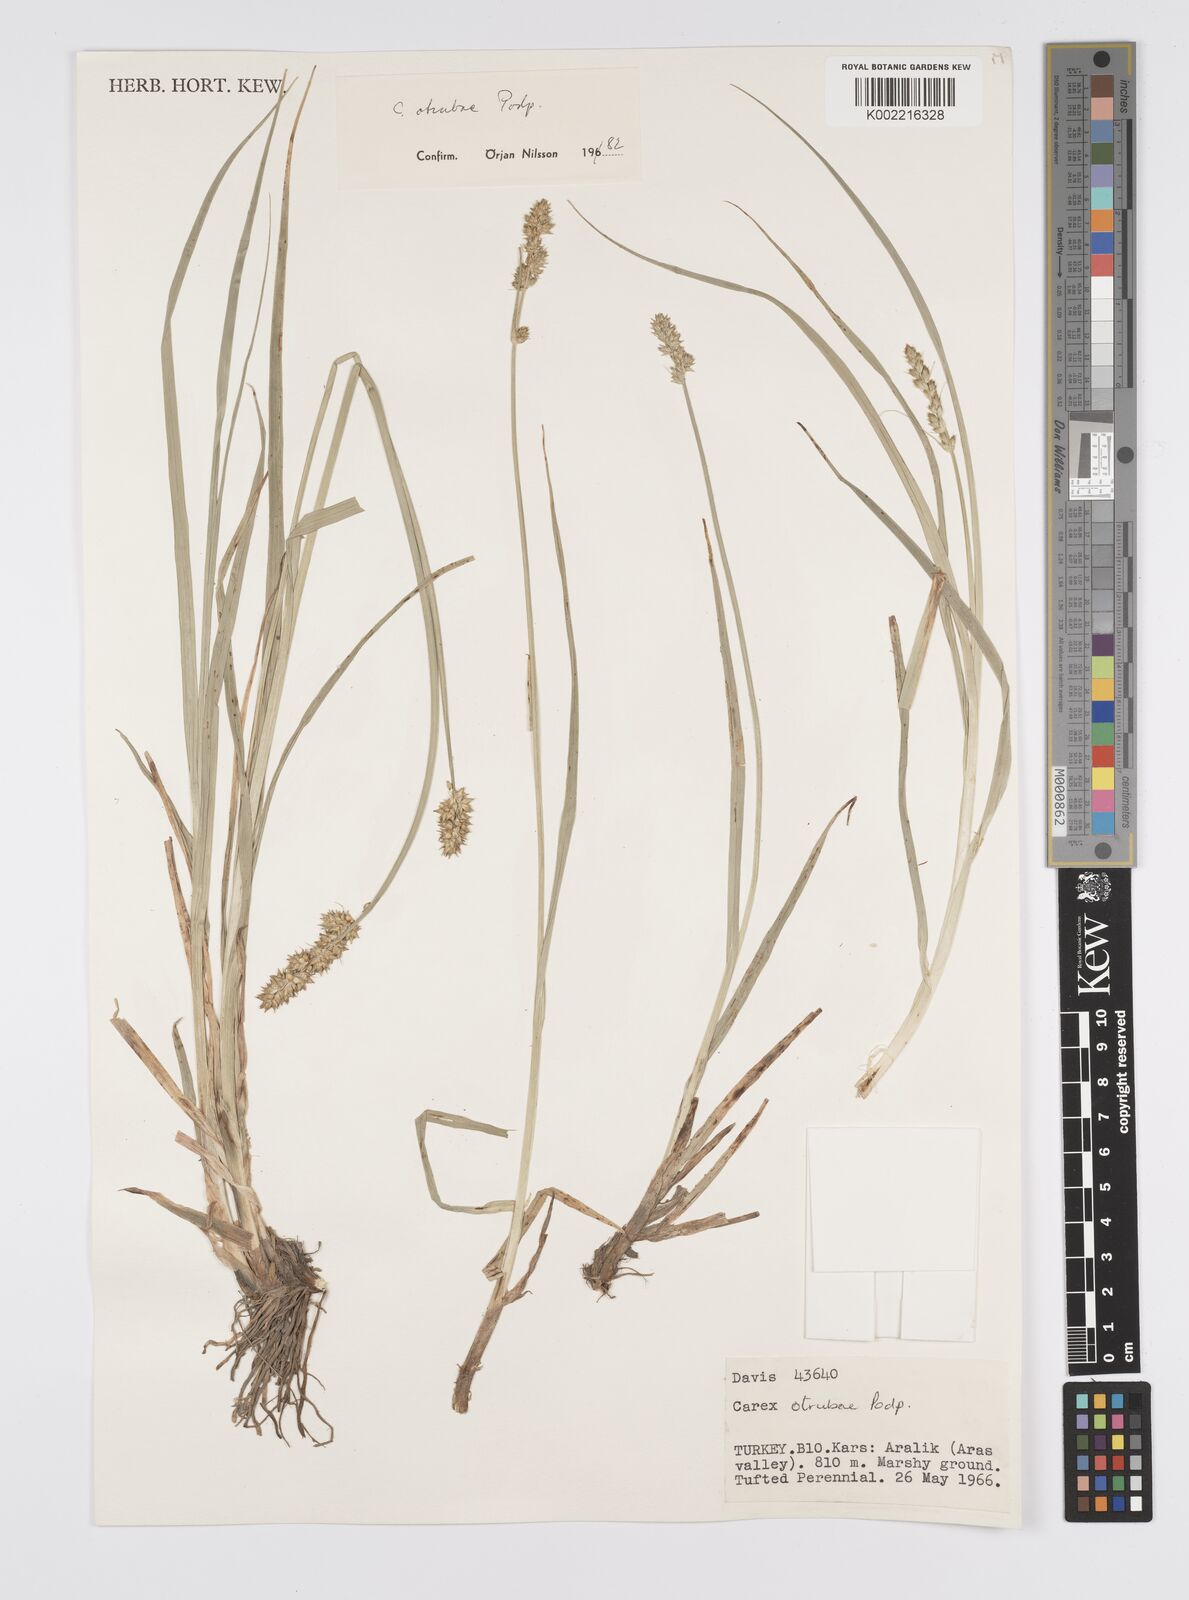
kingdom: Plantae
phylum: Tracheophyta
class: Liliopsida
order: Poales
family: Cyperaceae
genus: Carex
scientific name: Carex otrubae
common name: False fox-sedge
